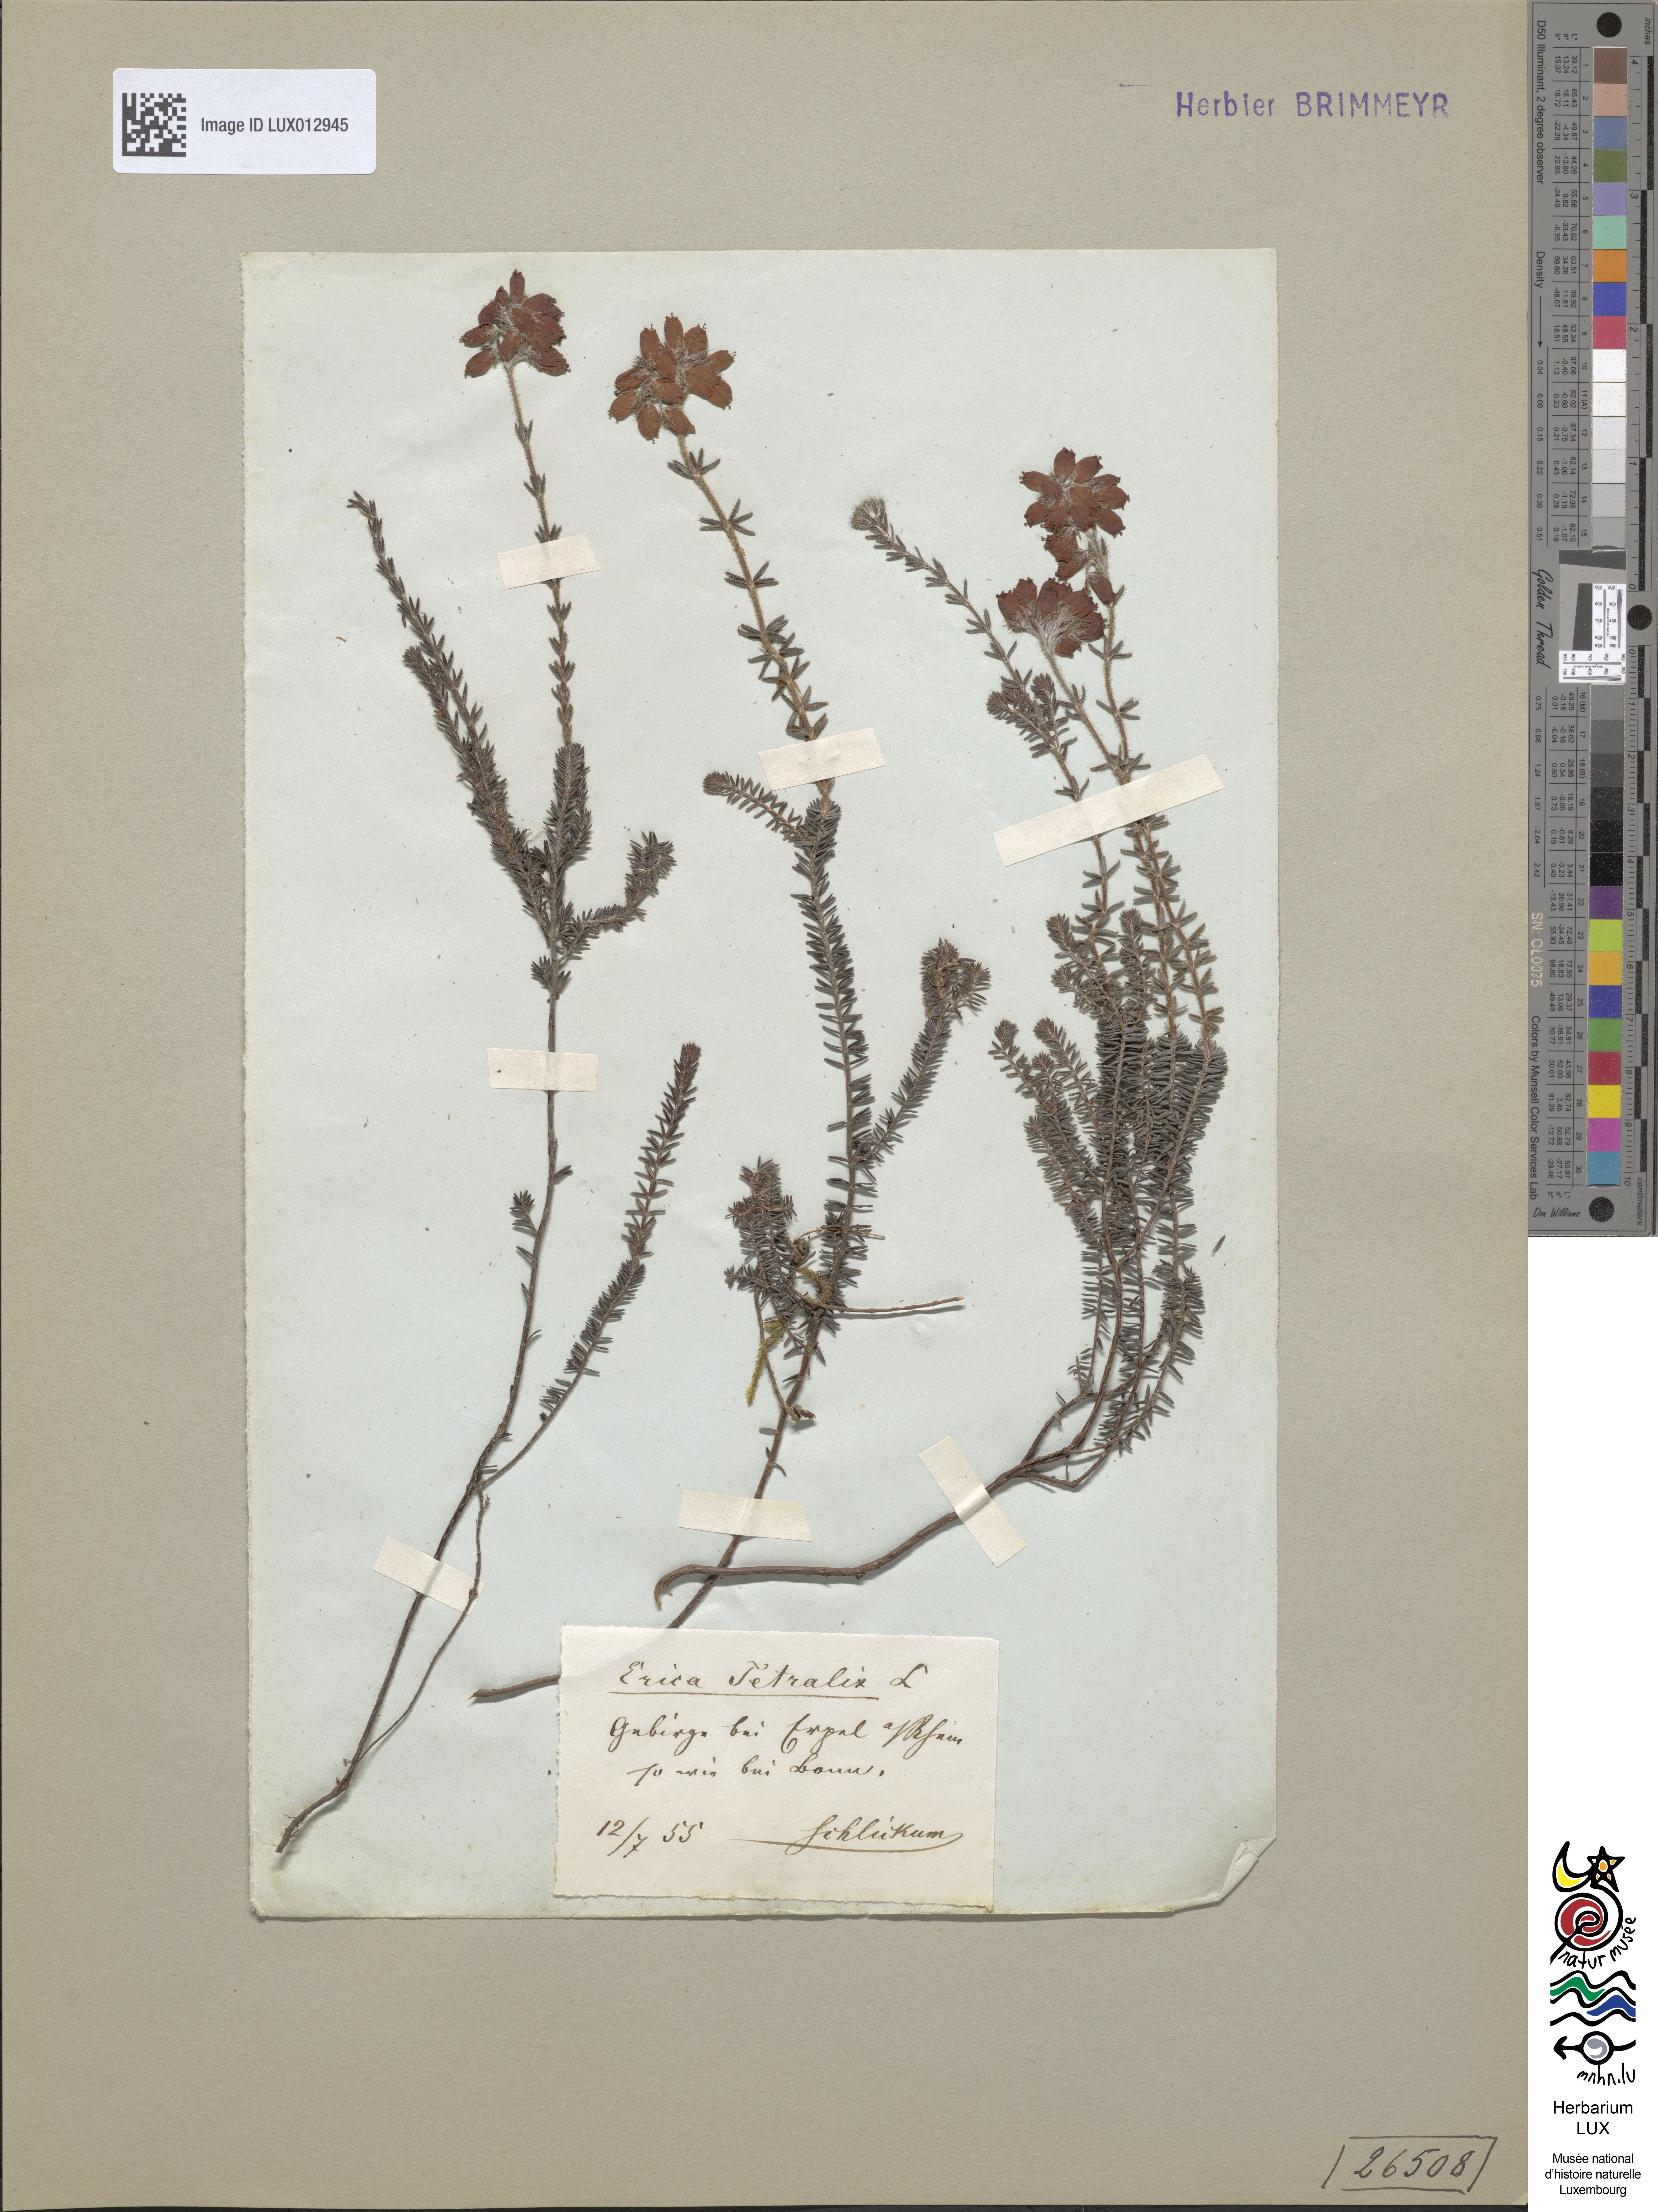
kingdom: Plantae
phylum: Tracheophyta
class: Magnoliopsida
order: Ericales
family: Ericaceae
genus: Erica
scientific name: Erica tetralix
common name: Cross-leaved heath
